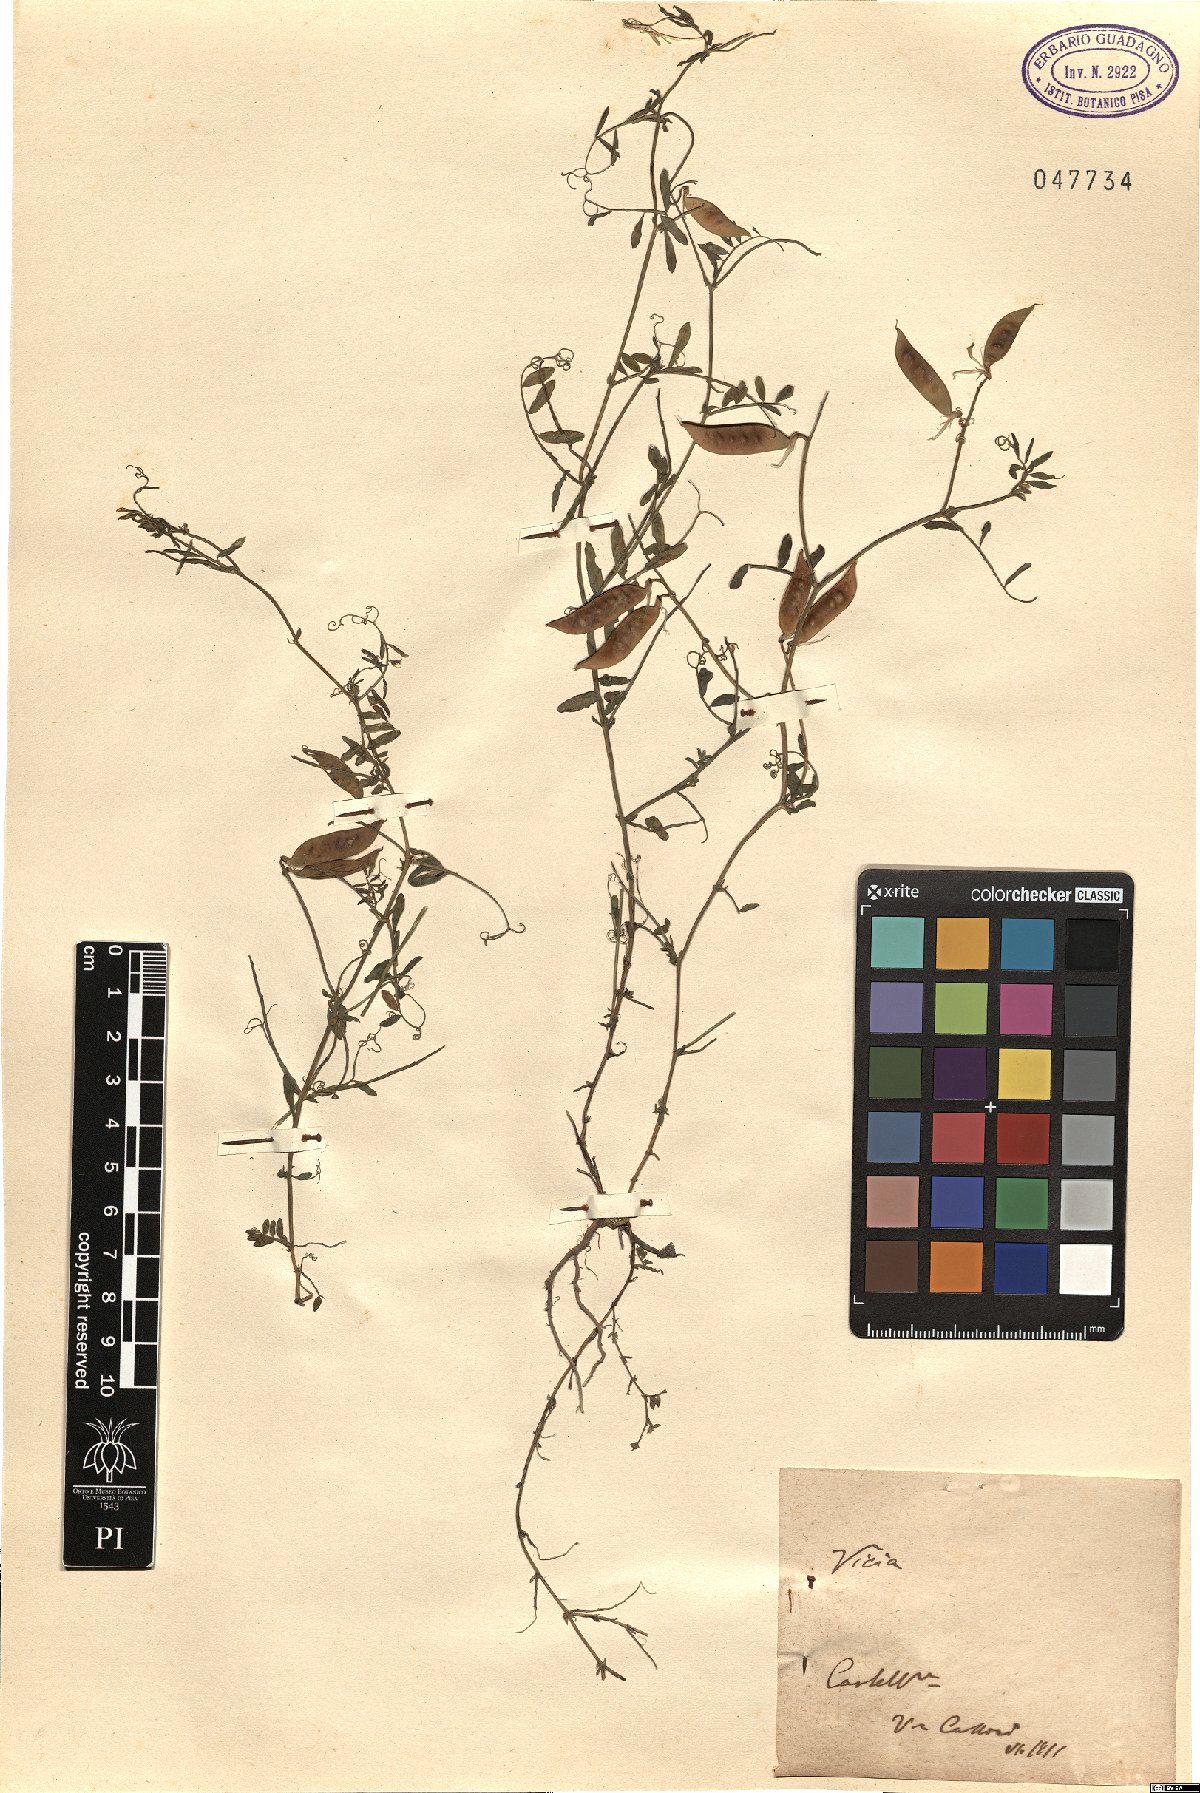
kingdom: Plantae
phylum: Tracheophyta
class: Magnoliopsida
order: Fabales
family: Fabaceae
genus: Vicia
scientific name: Vicia
